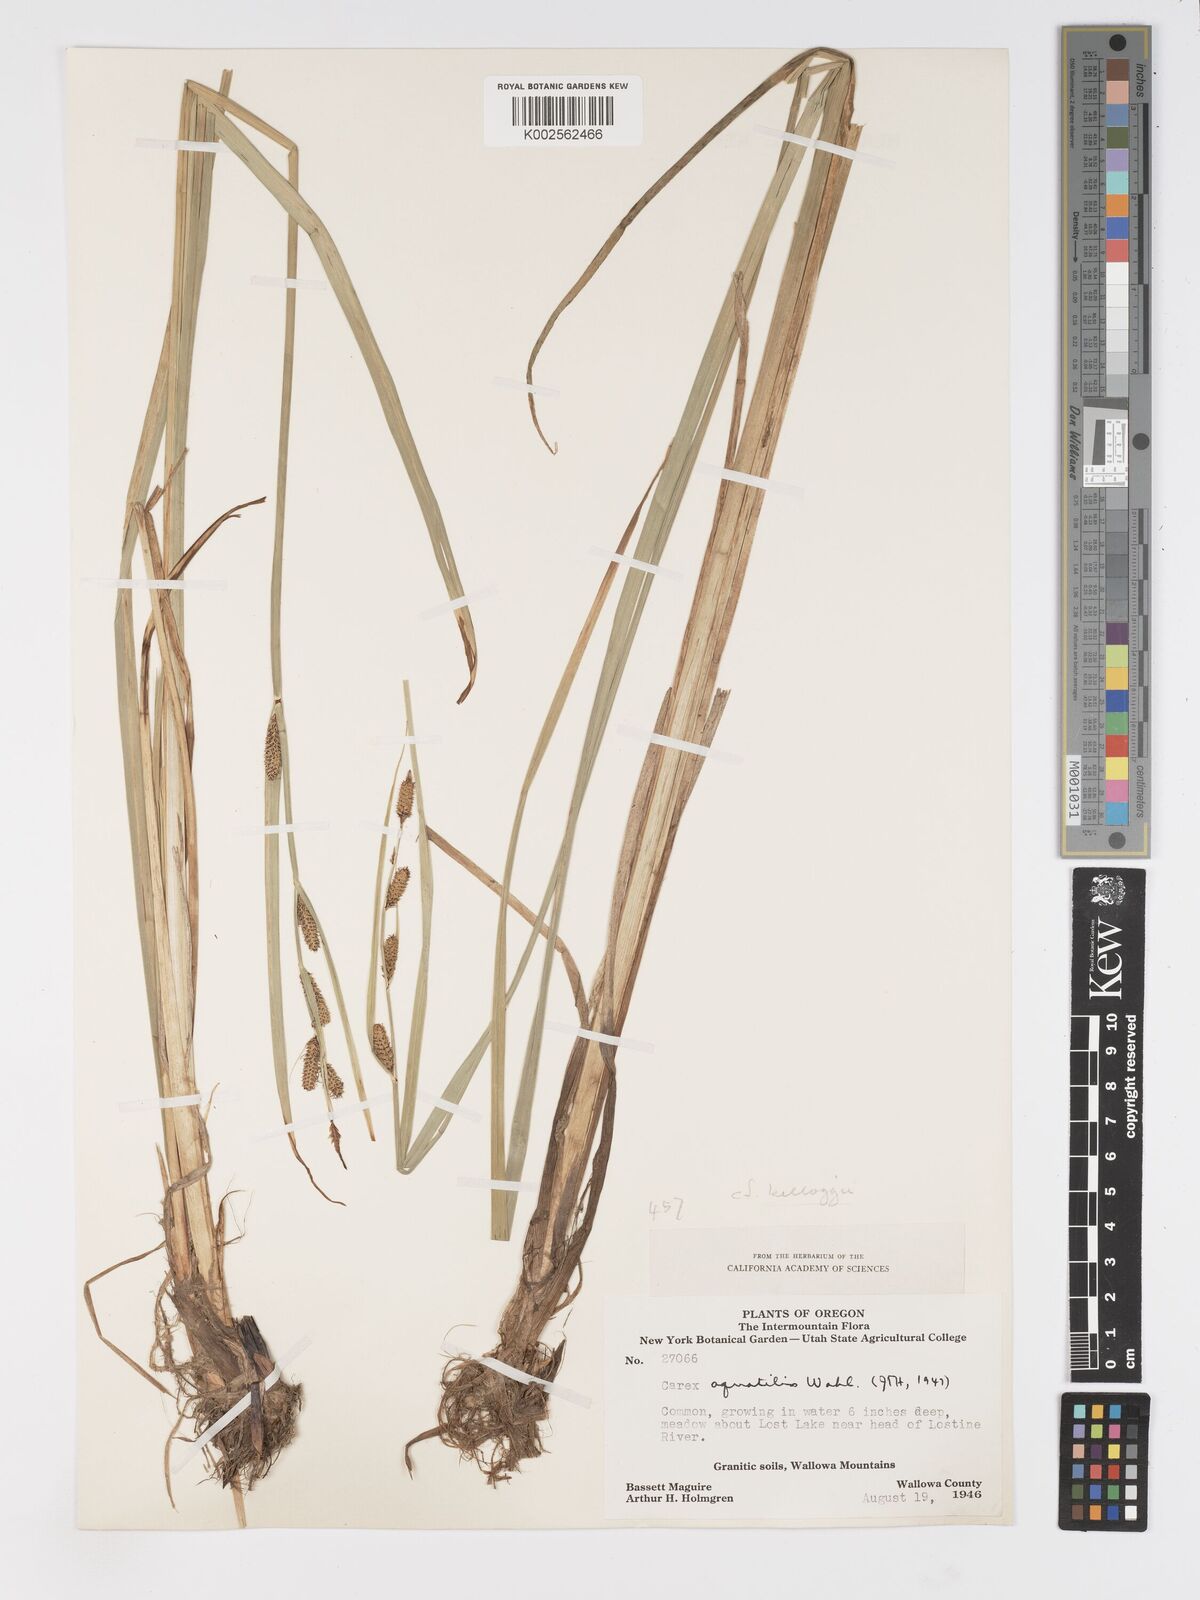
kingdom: Plantae
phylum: Tracheophyta
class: Liliopsida
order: Poales
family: Cyperaceae
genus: Carex
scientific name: Carex
